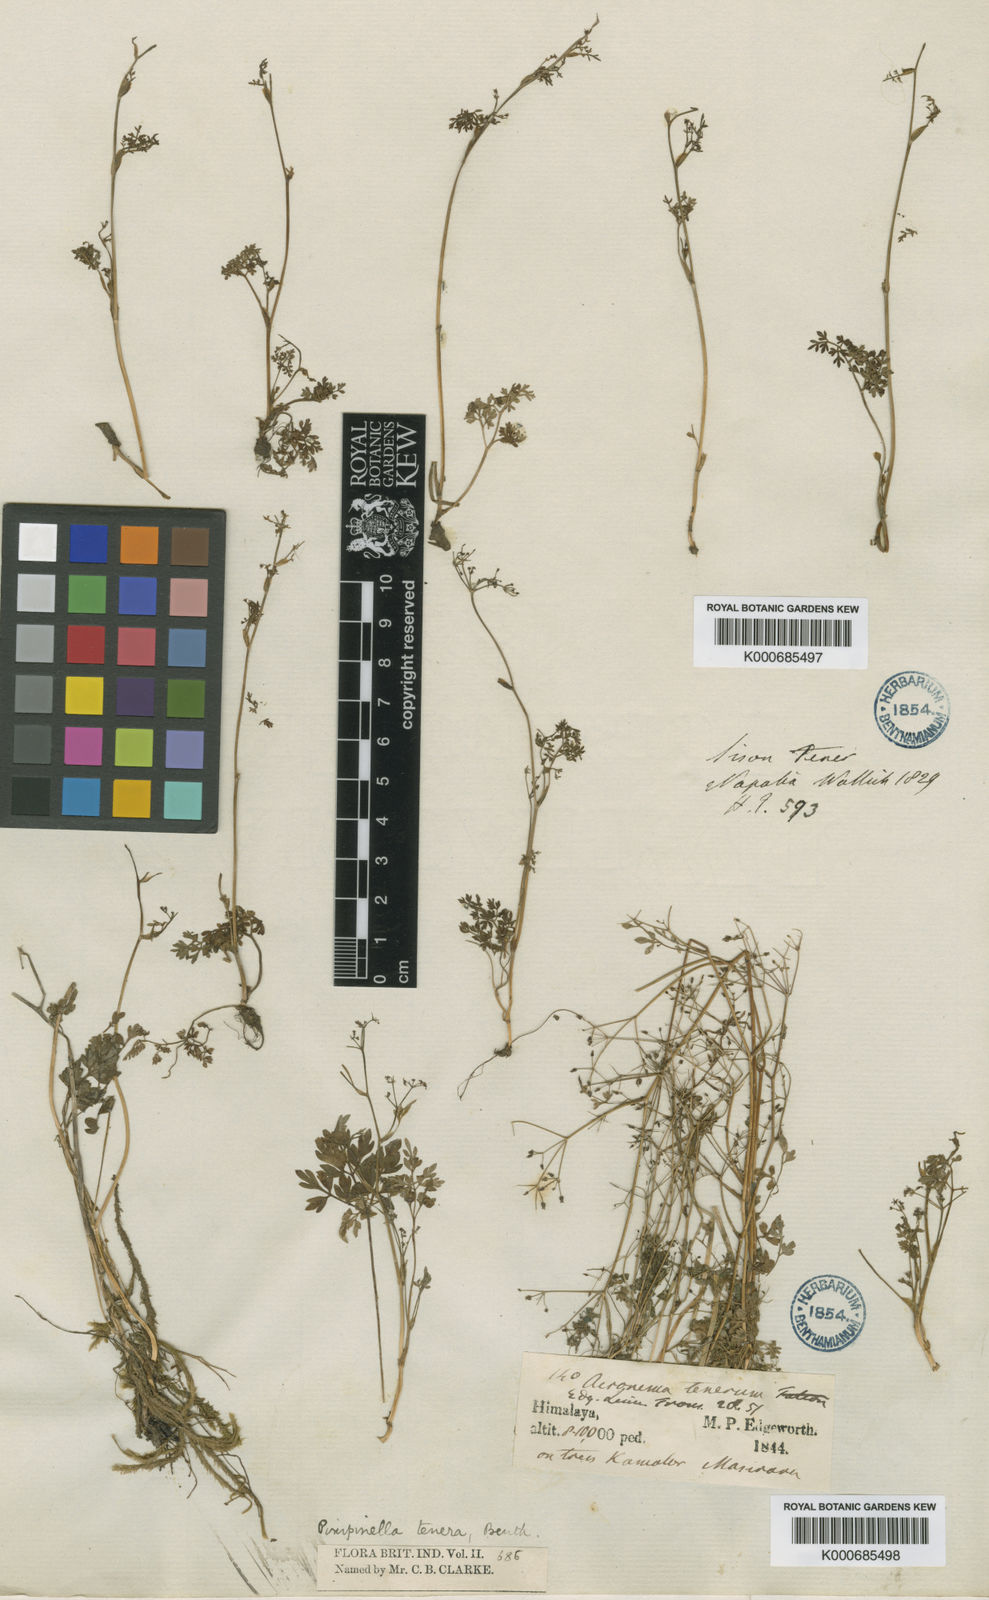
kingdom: Plantae
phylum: Tracheophyta
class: Magnoliopsida
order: Apiales
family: Apiaceae
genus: Pimpinella
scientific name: Pimpinella
